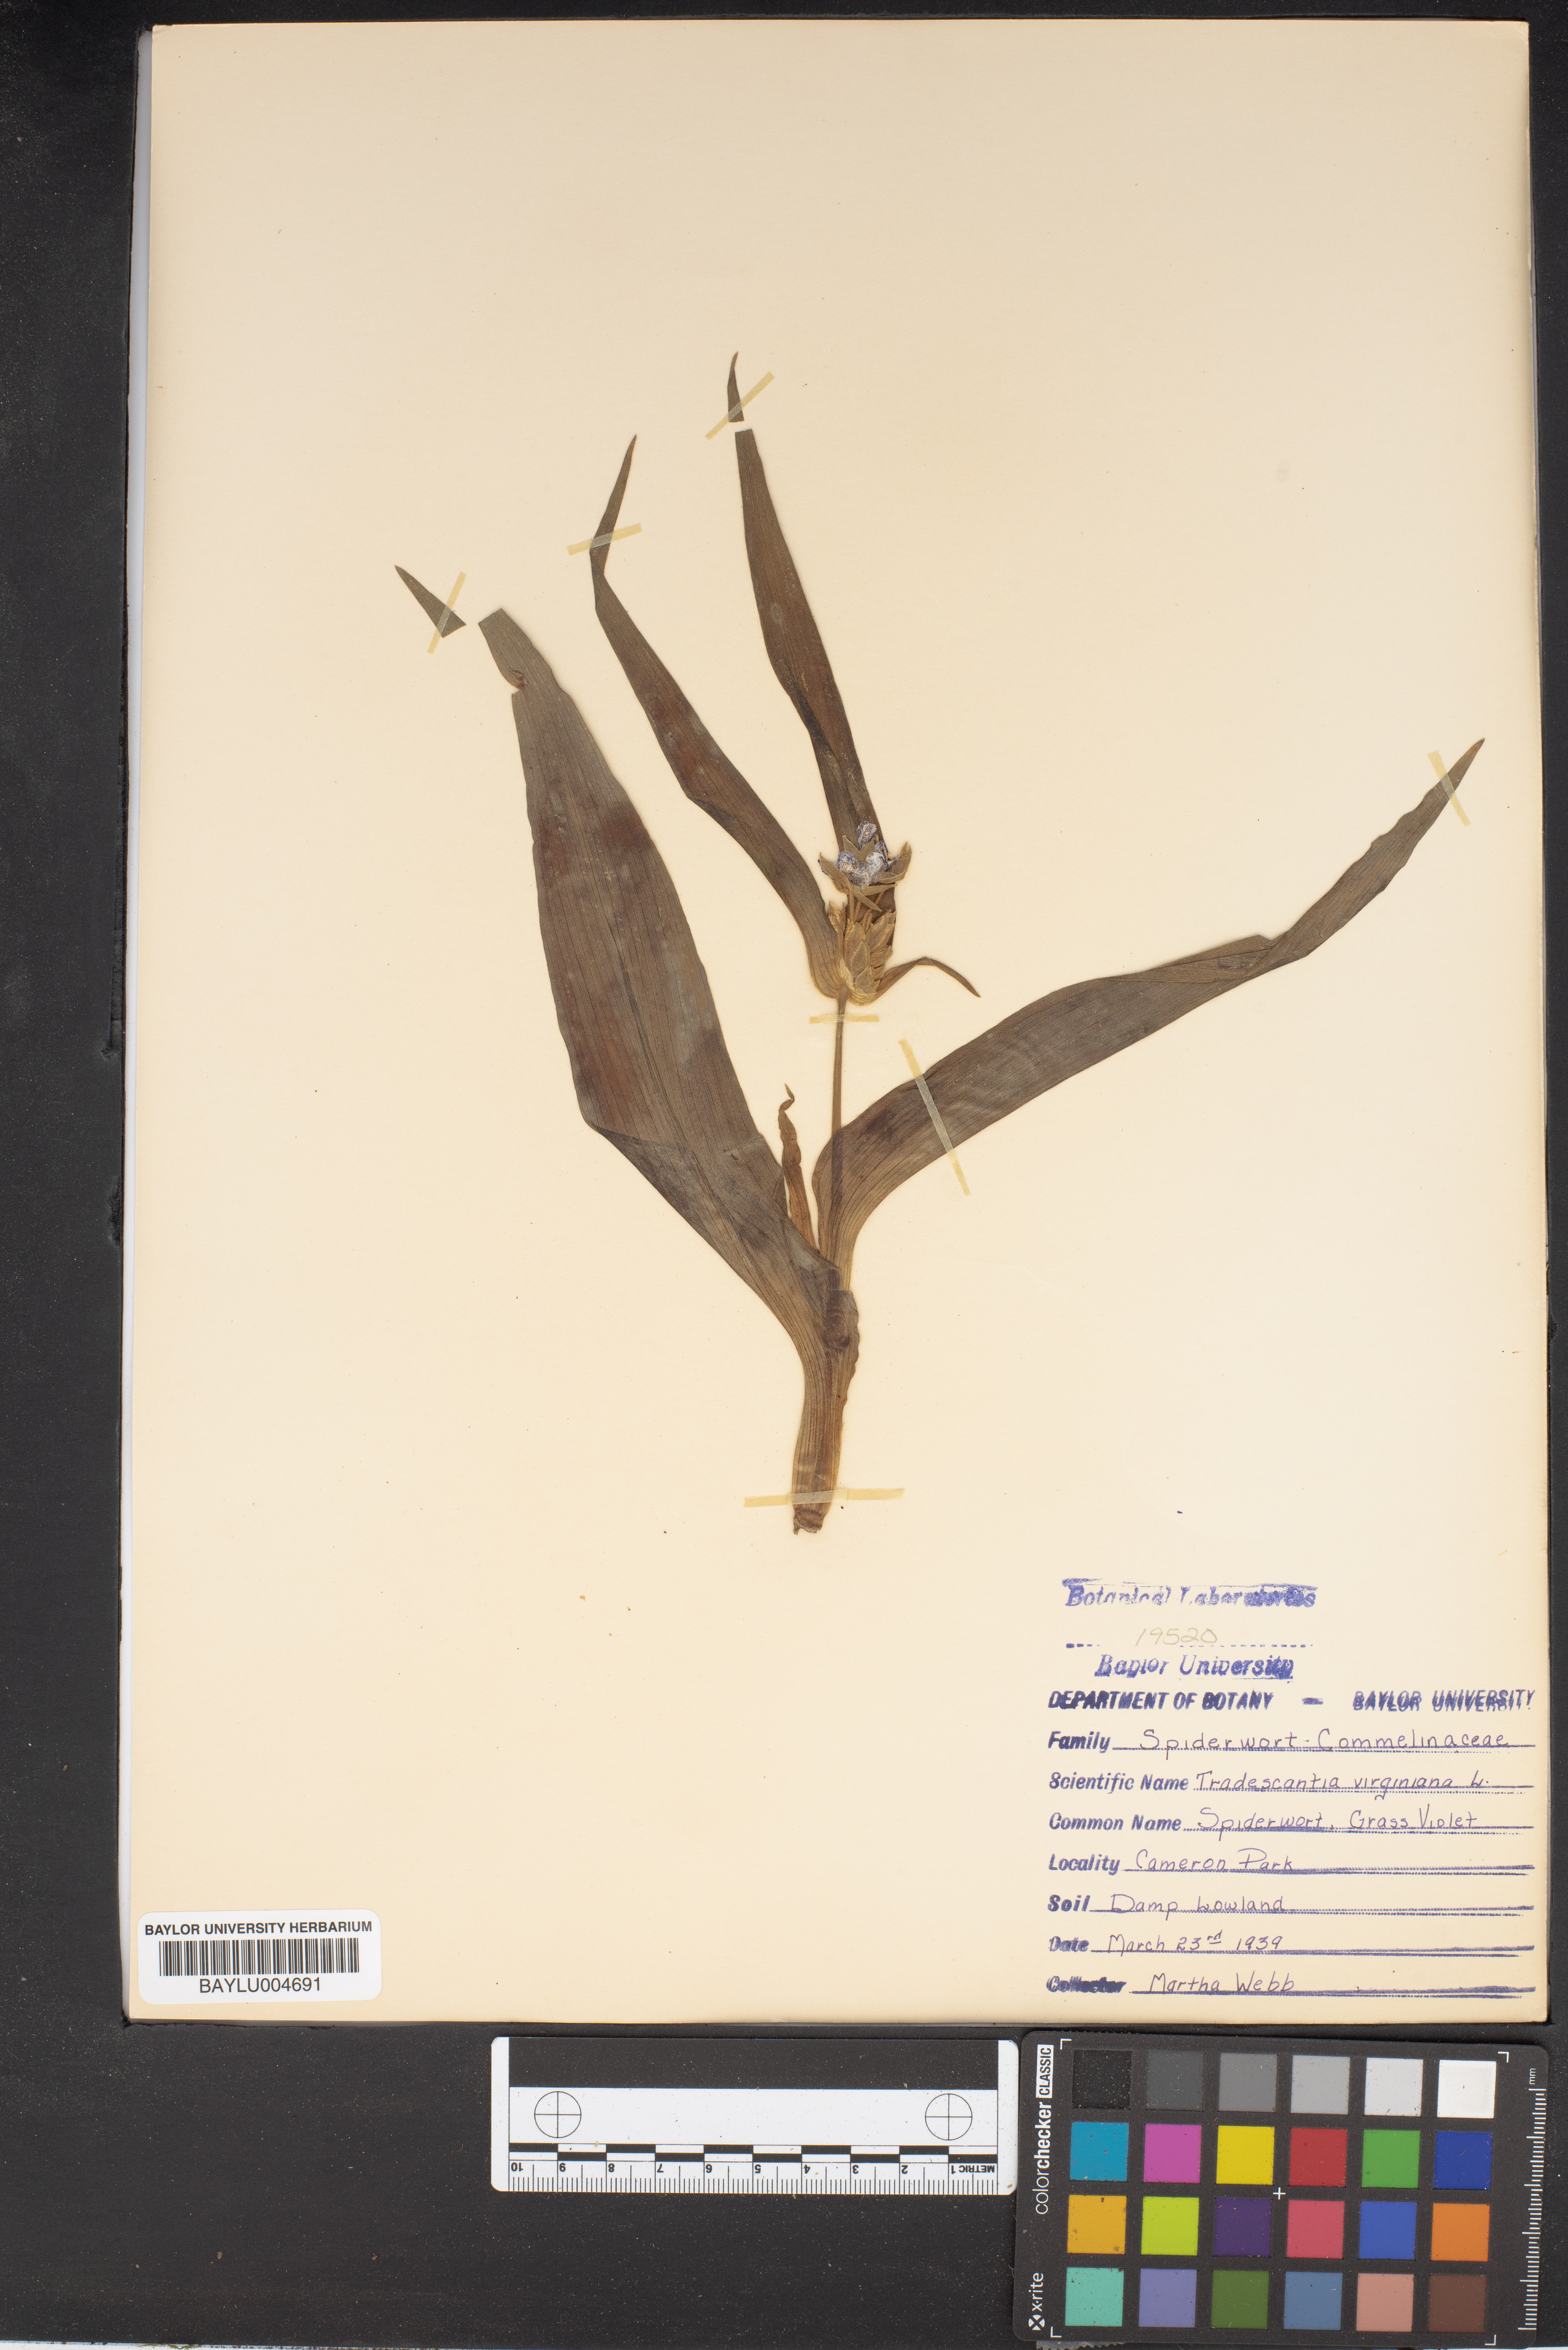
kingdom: Plantae
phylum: Tracheophyta
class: Liliopsida
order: Commelinales
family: Commelinaceae
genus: Tradescantia
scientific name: Tradescantia virginiana
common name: Spiderwort
